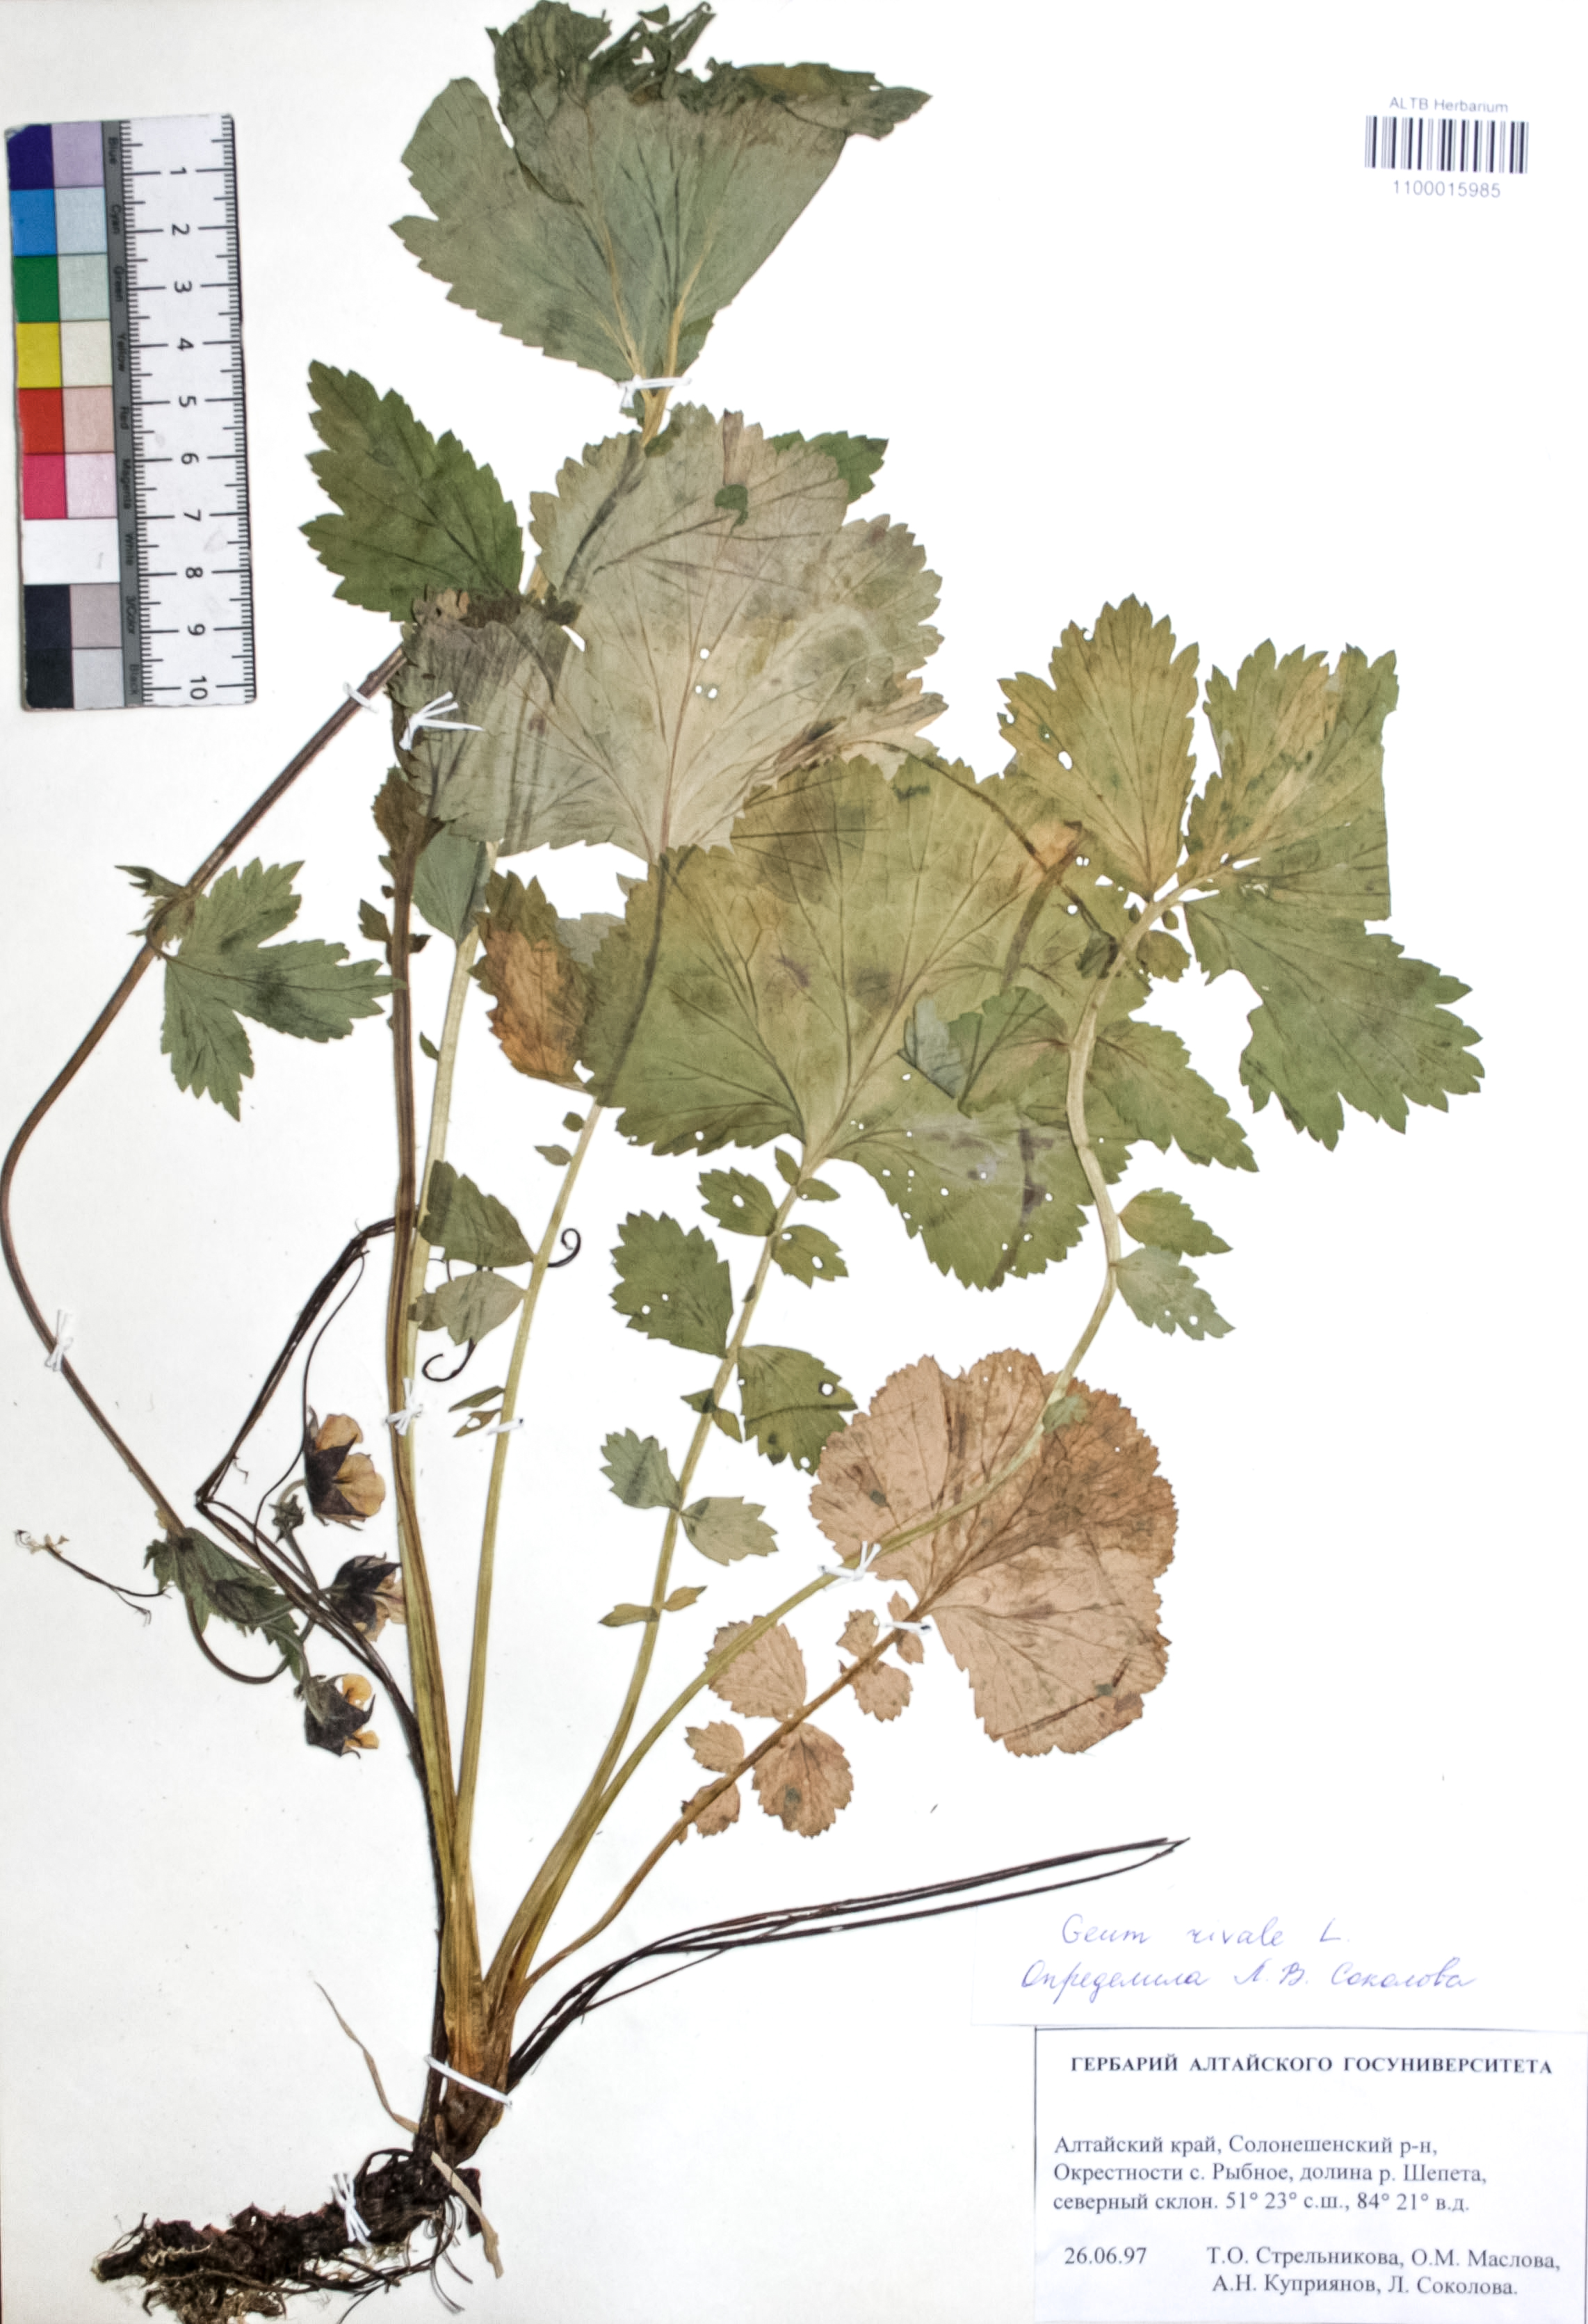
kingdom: Plantae
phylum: Tracheophyta
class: Magnoliopsida
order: Rosales
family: Rosaceae
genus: Geum
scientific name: Geum rivale
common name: Water avens
